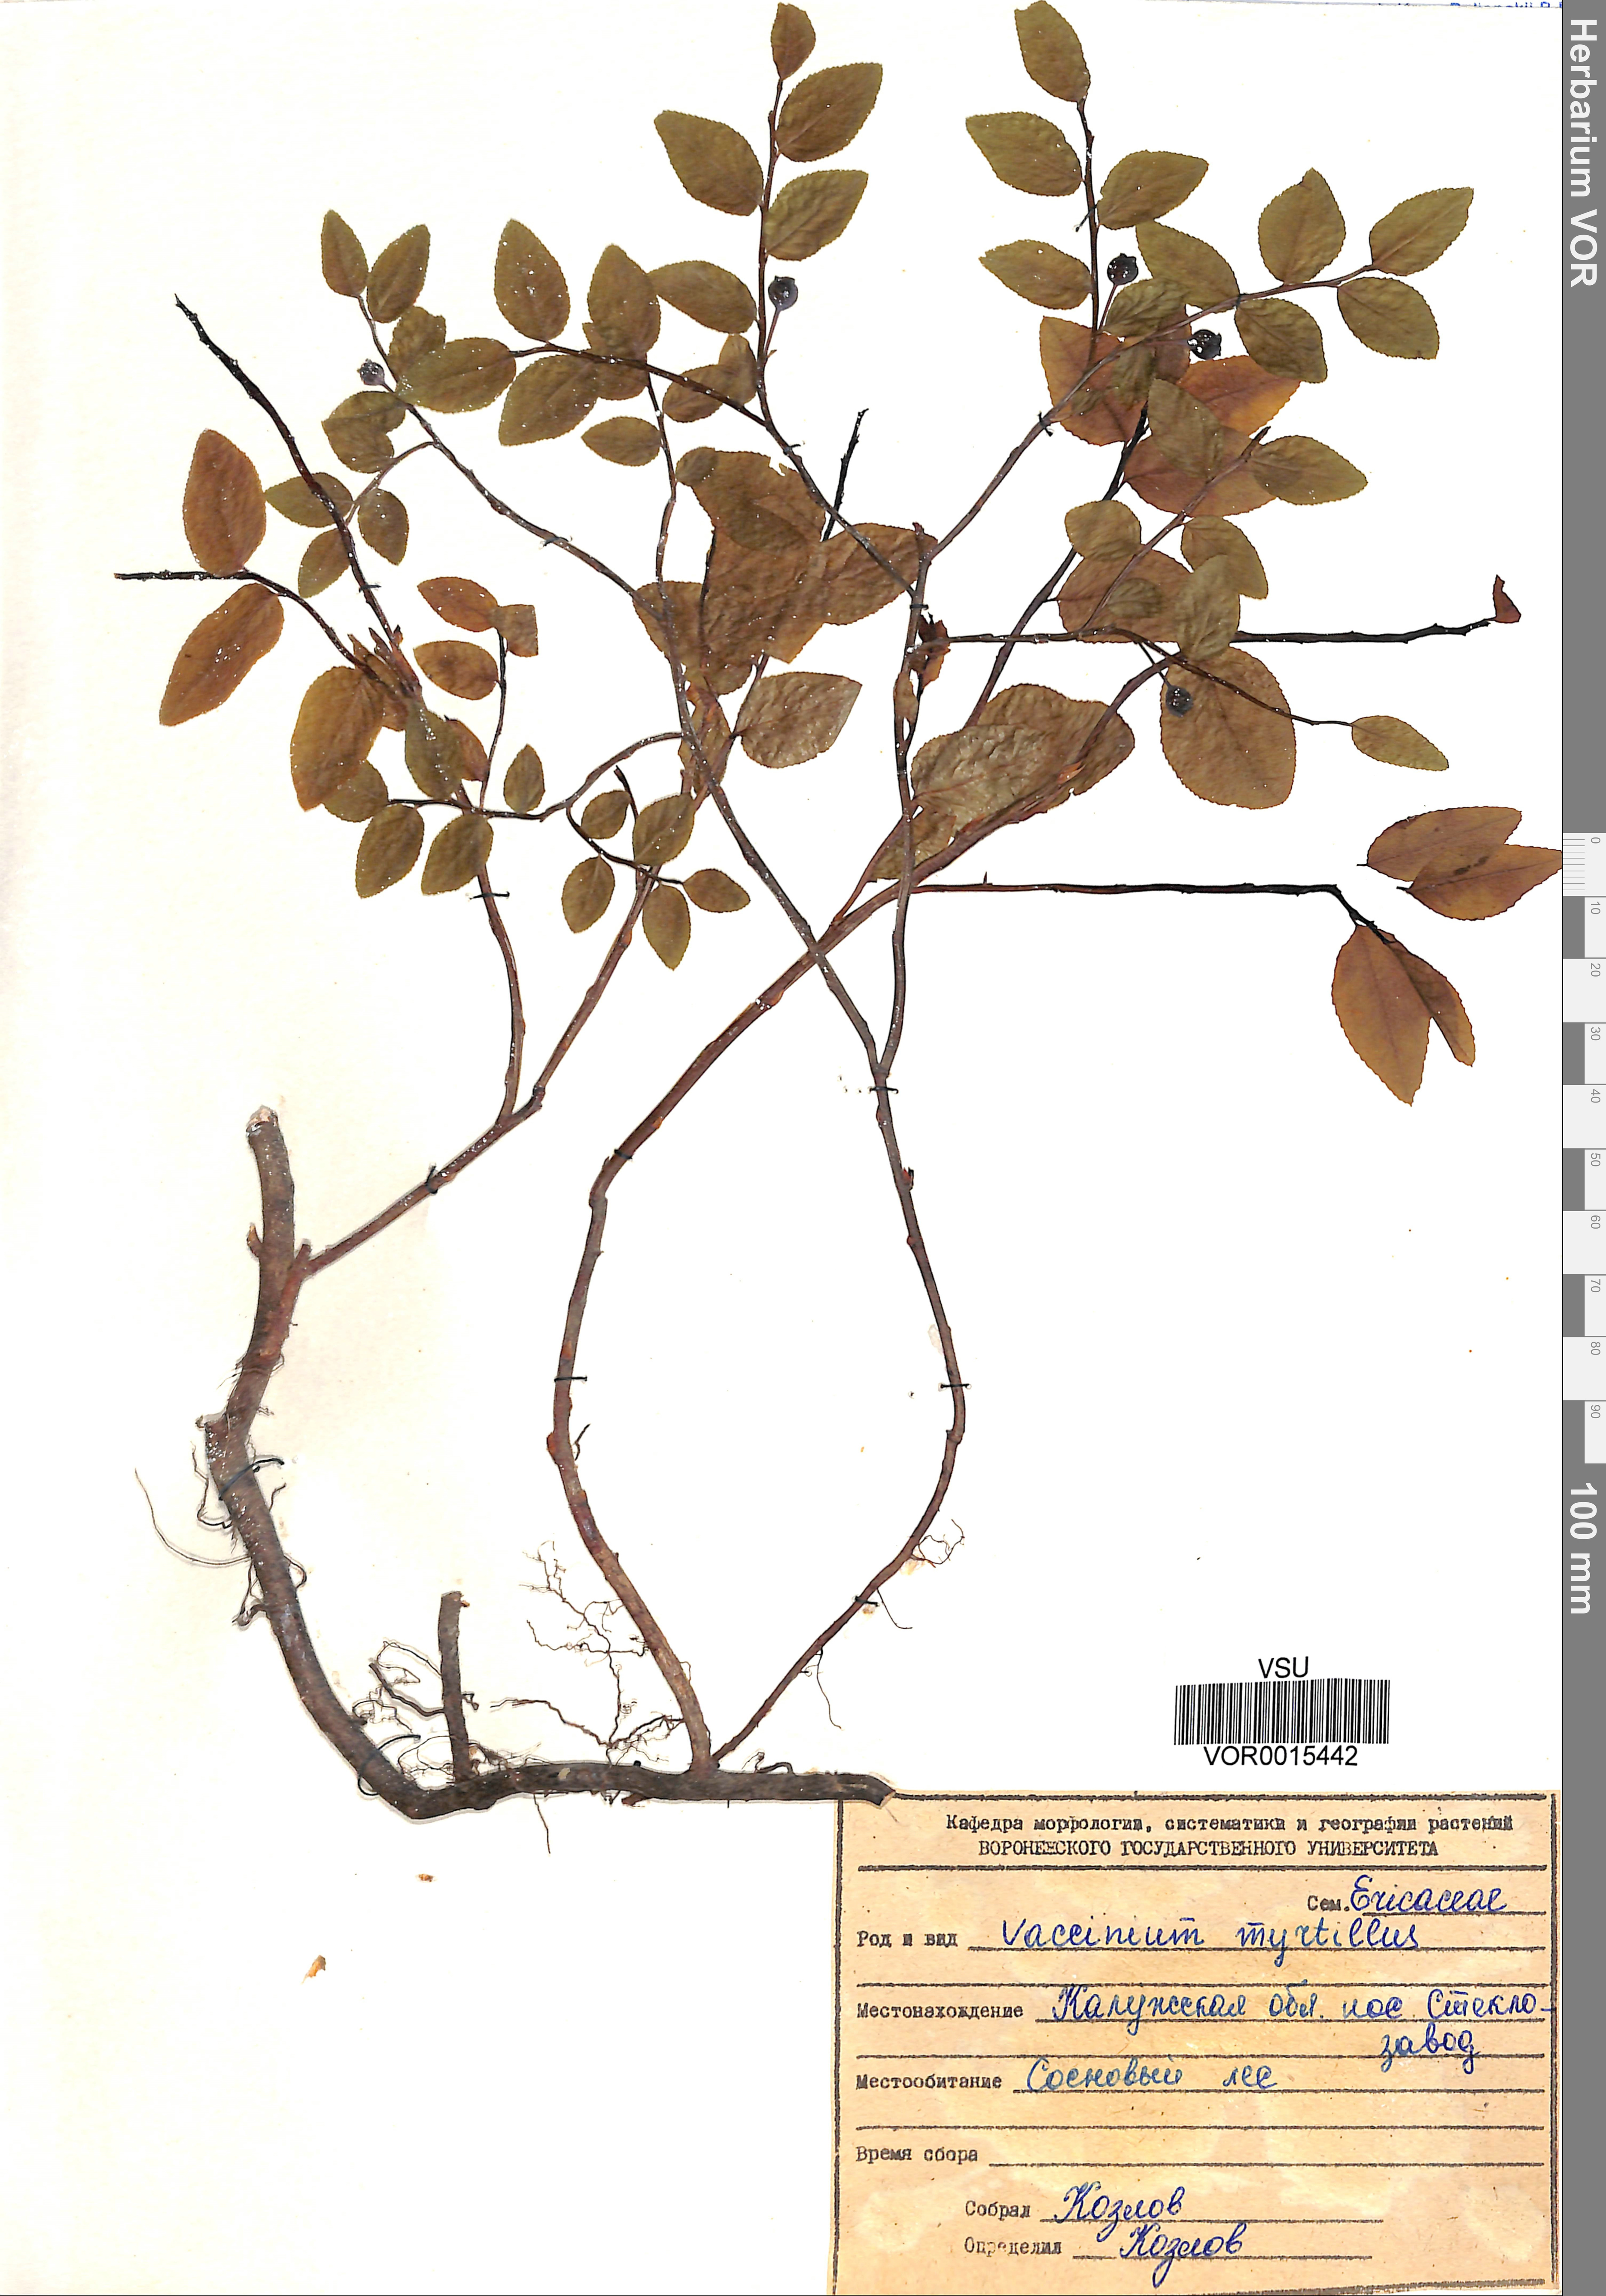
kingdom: Plantae
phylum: Tracheophyta
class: Magnoliopsida
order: Ericales
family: Ericaceae
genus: Vaccinium
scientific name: Vaccinium myrtillus
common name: Bilberry
